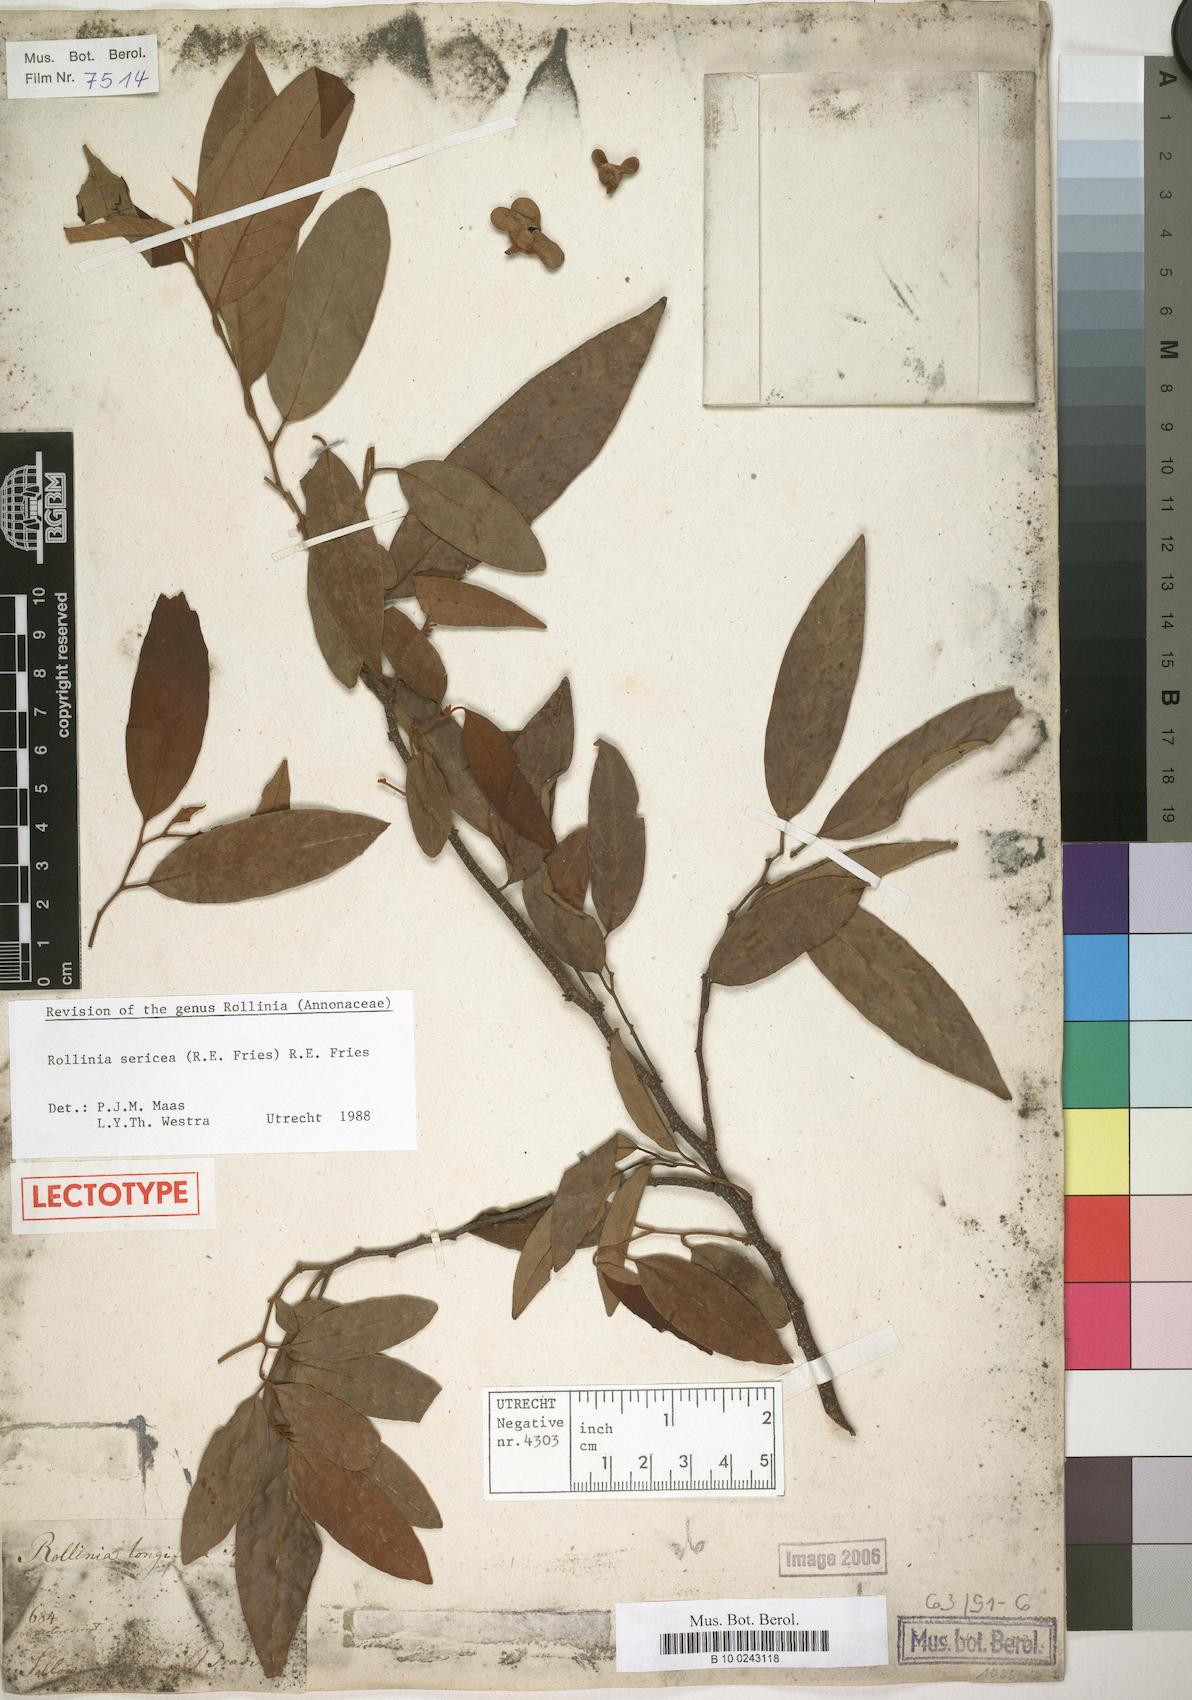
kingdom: Plantae
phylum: Tracheophyta
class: Magnoliopsida
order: Magnoliales
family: Annonaceae
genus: Annona
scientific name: Annona neosericea
